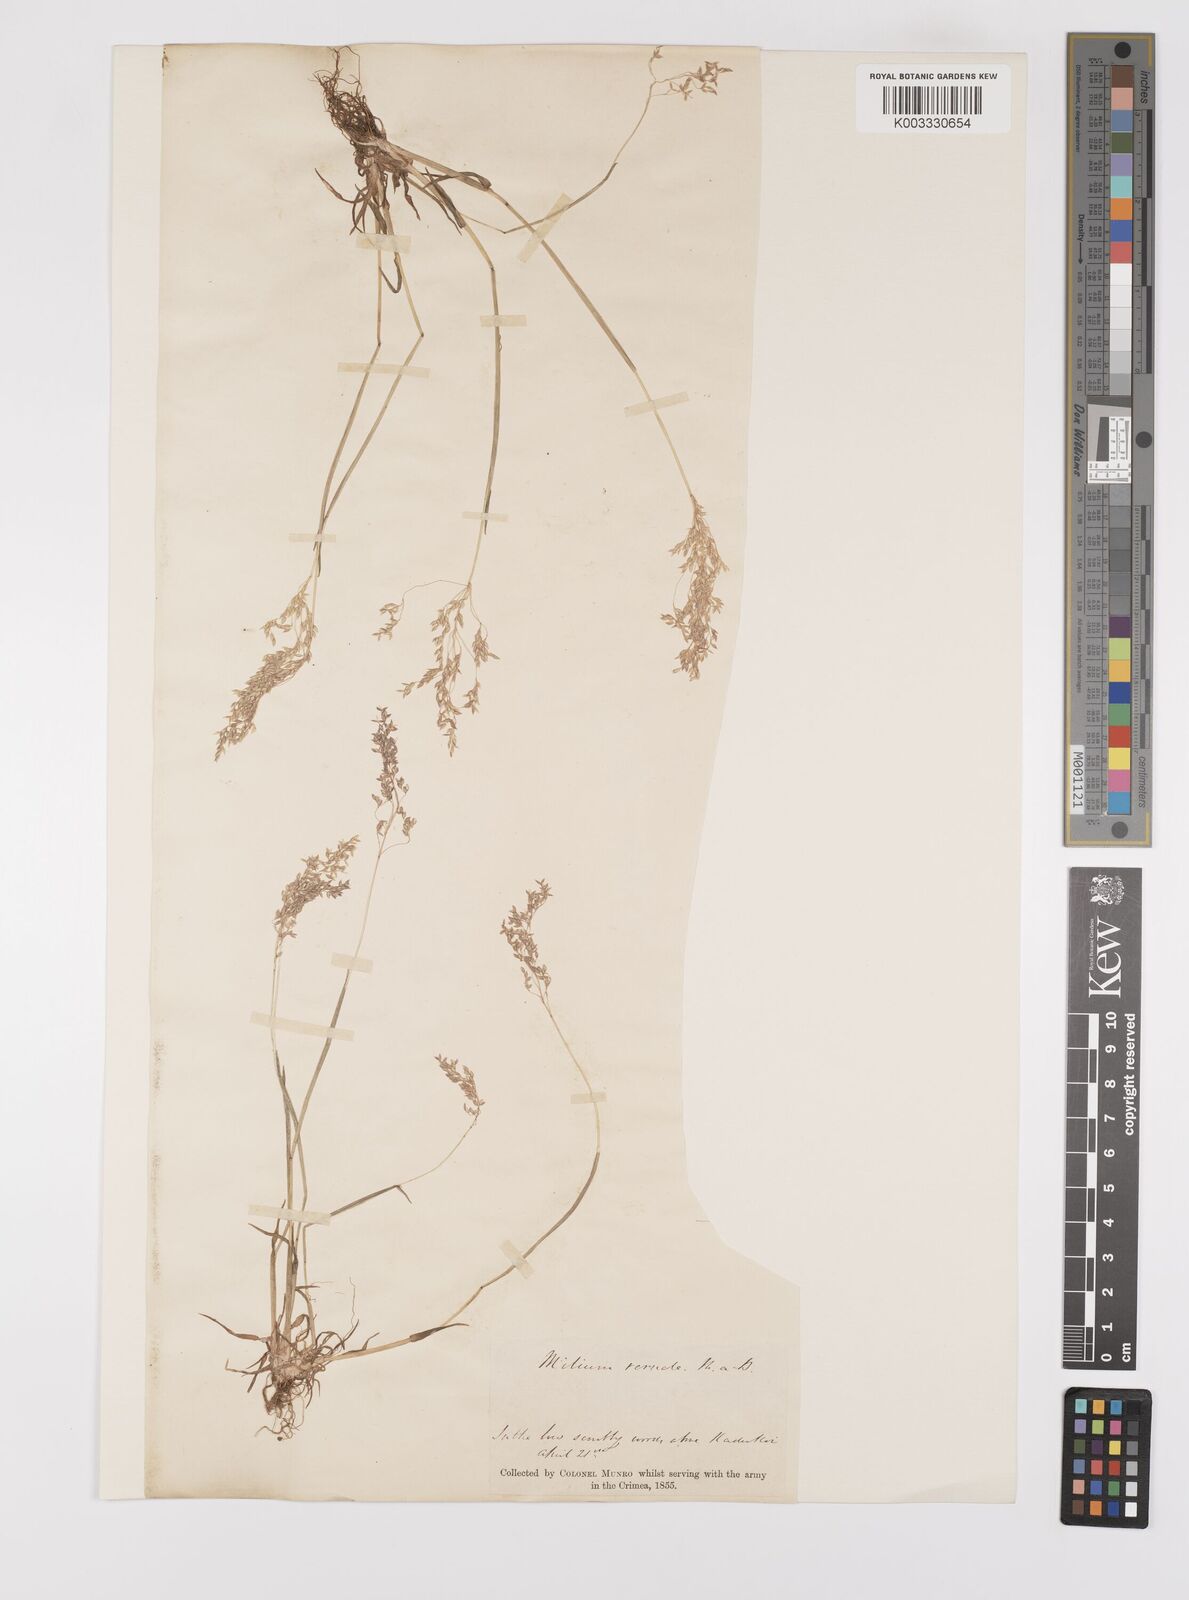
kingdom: Plantae
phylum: Tracheophyta
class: Liliopsida
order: Poales
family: Poaceae
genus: Milium
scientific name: Milium vernale
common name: Early millet
